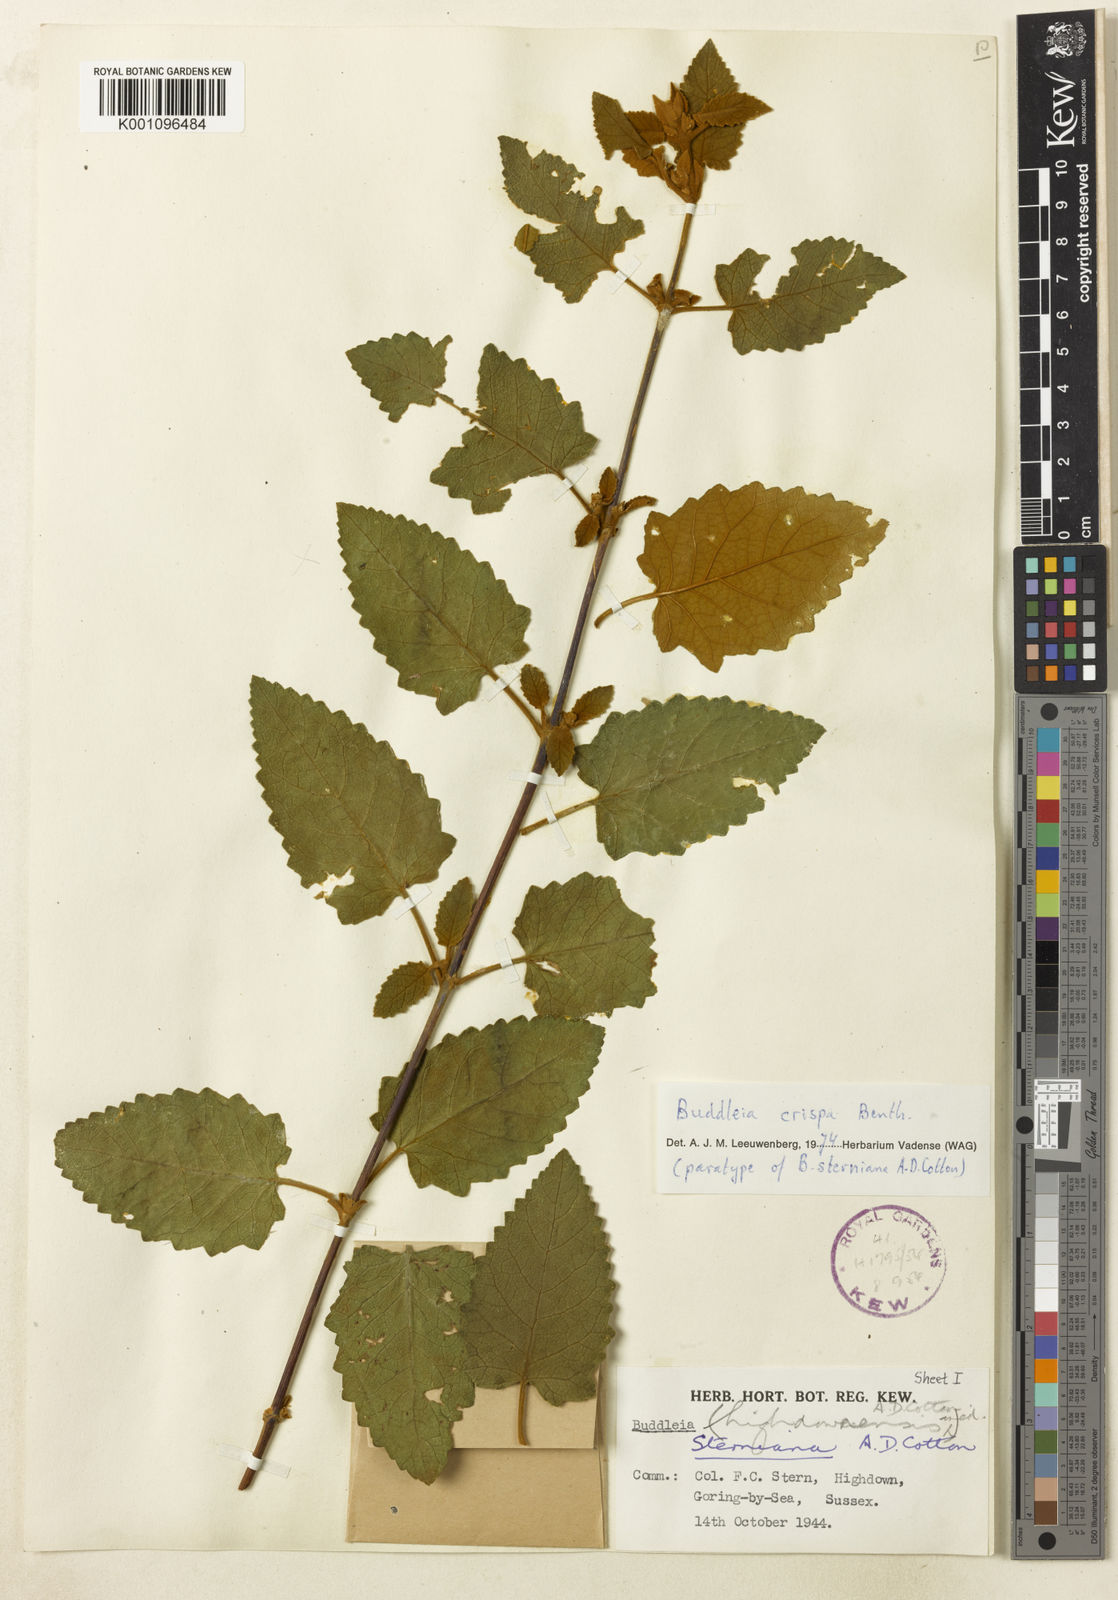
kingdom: Plantae
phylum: Tracheophyta
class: Magnoliopsida
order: Lamiales
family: Scrophulariaceae
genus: Buddleja
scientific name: Buddleja crispa
